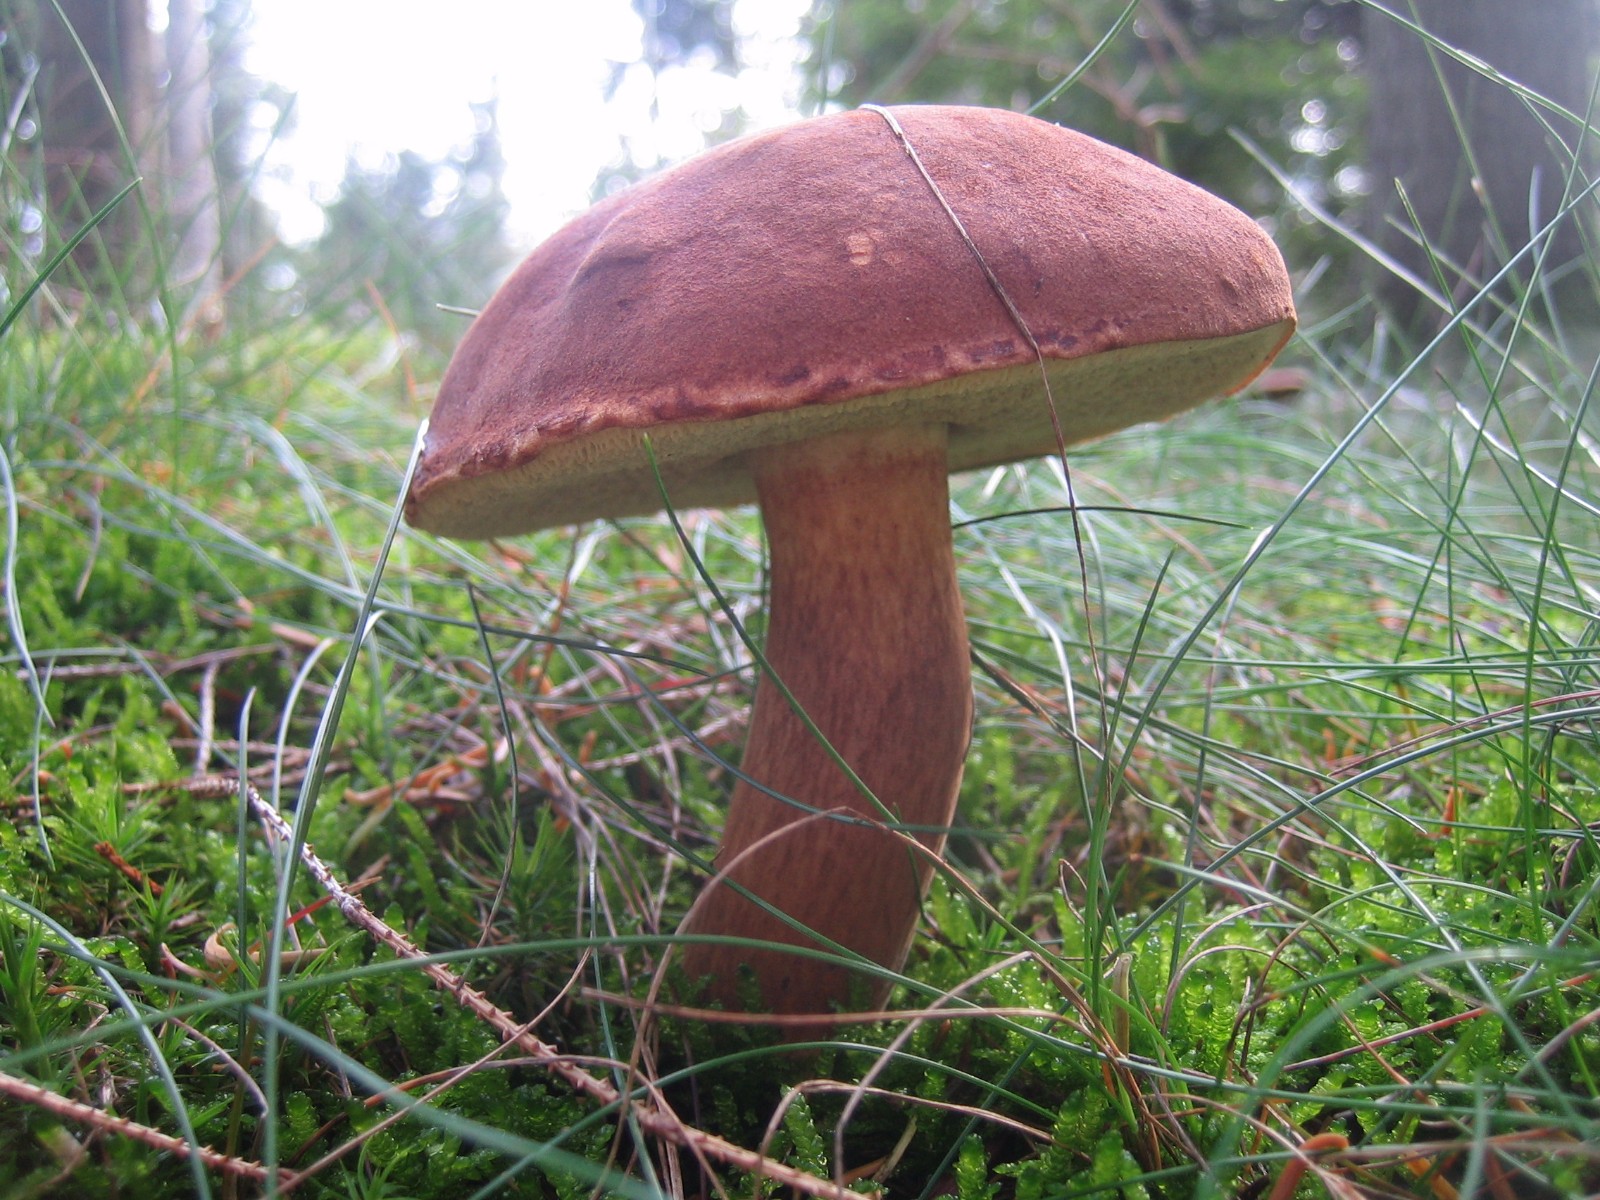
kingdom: Fungi
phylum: Basidiomycota
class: Agaricomycetes
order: Boletales
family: Boletaceae
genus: Imleria
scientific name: Imleria badia
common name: brunstokket rørhat
